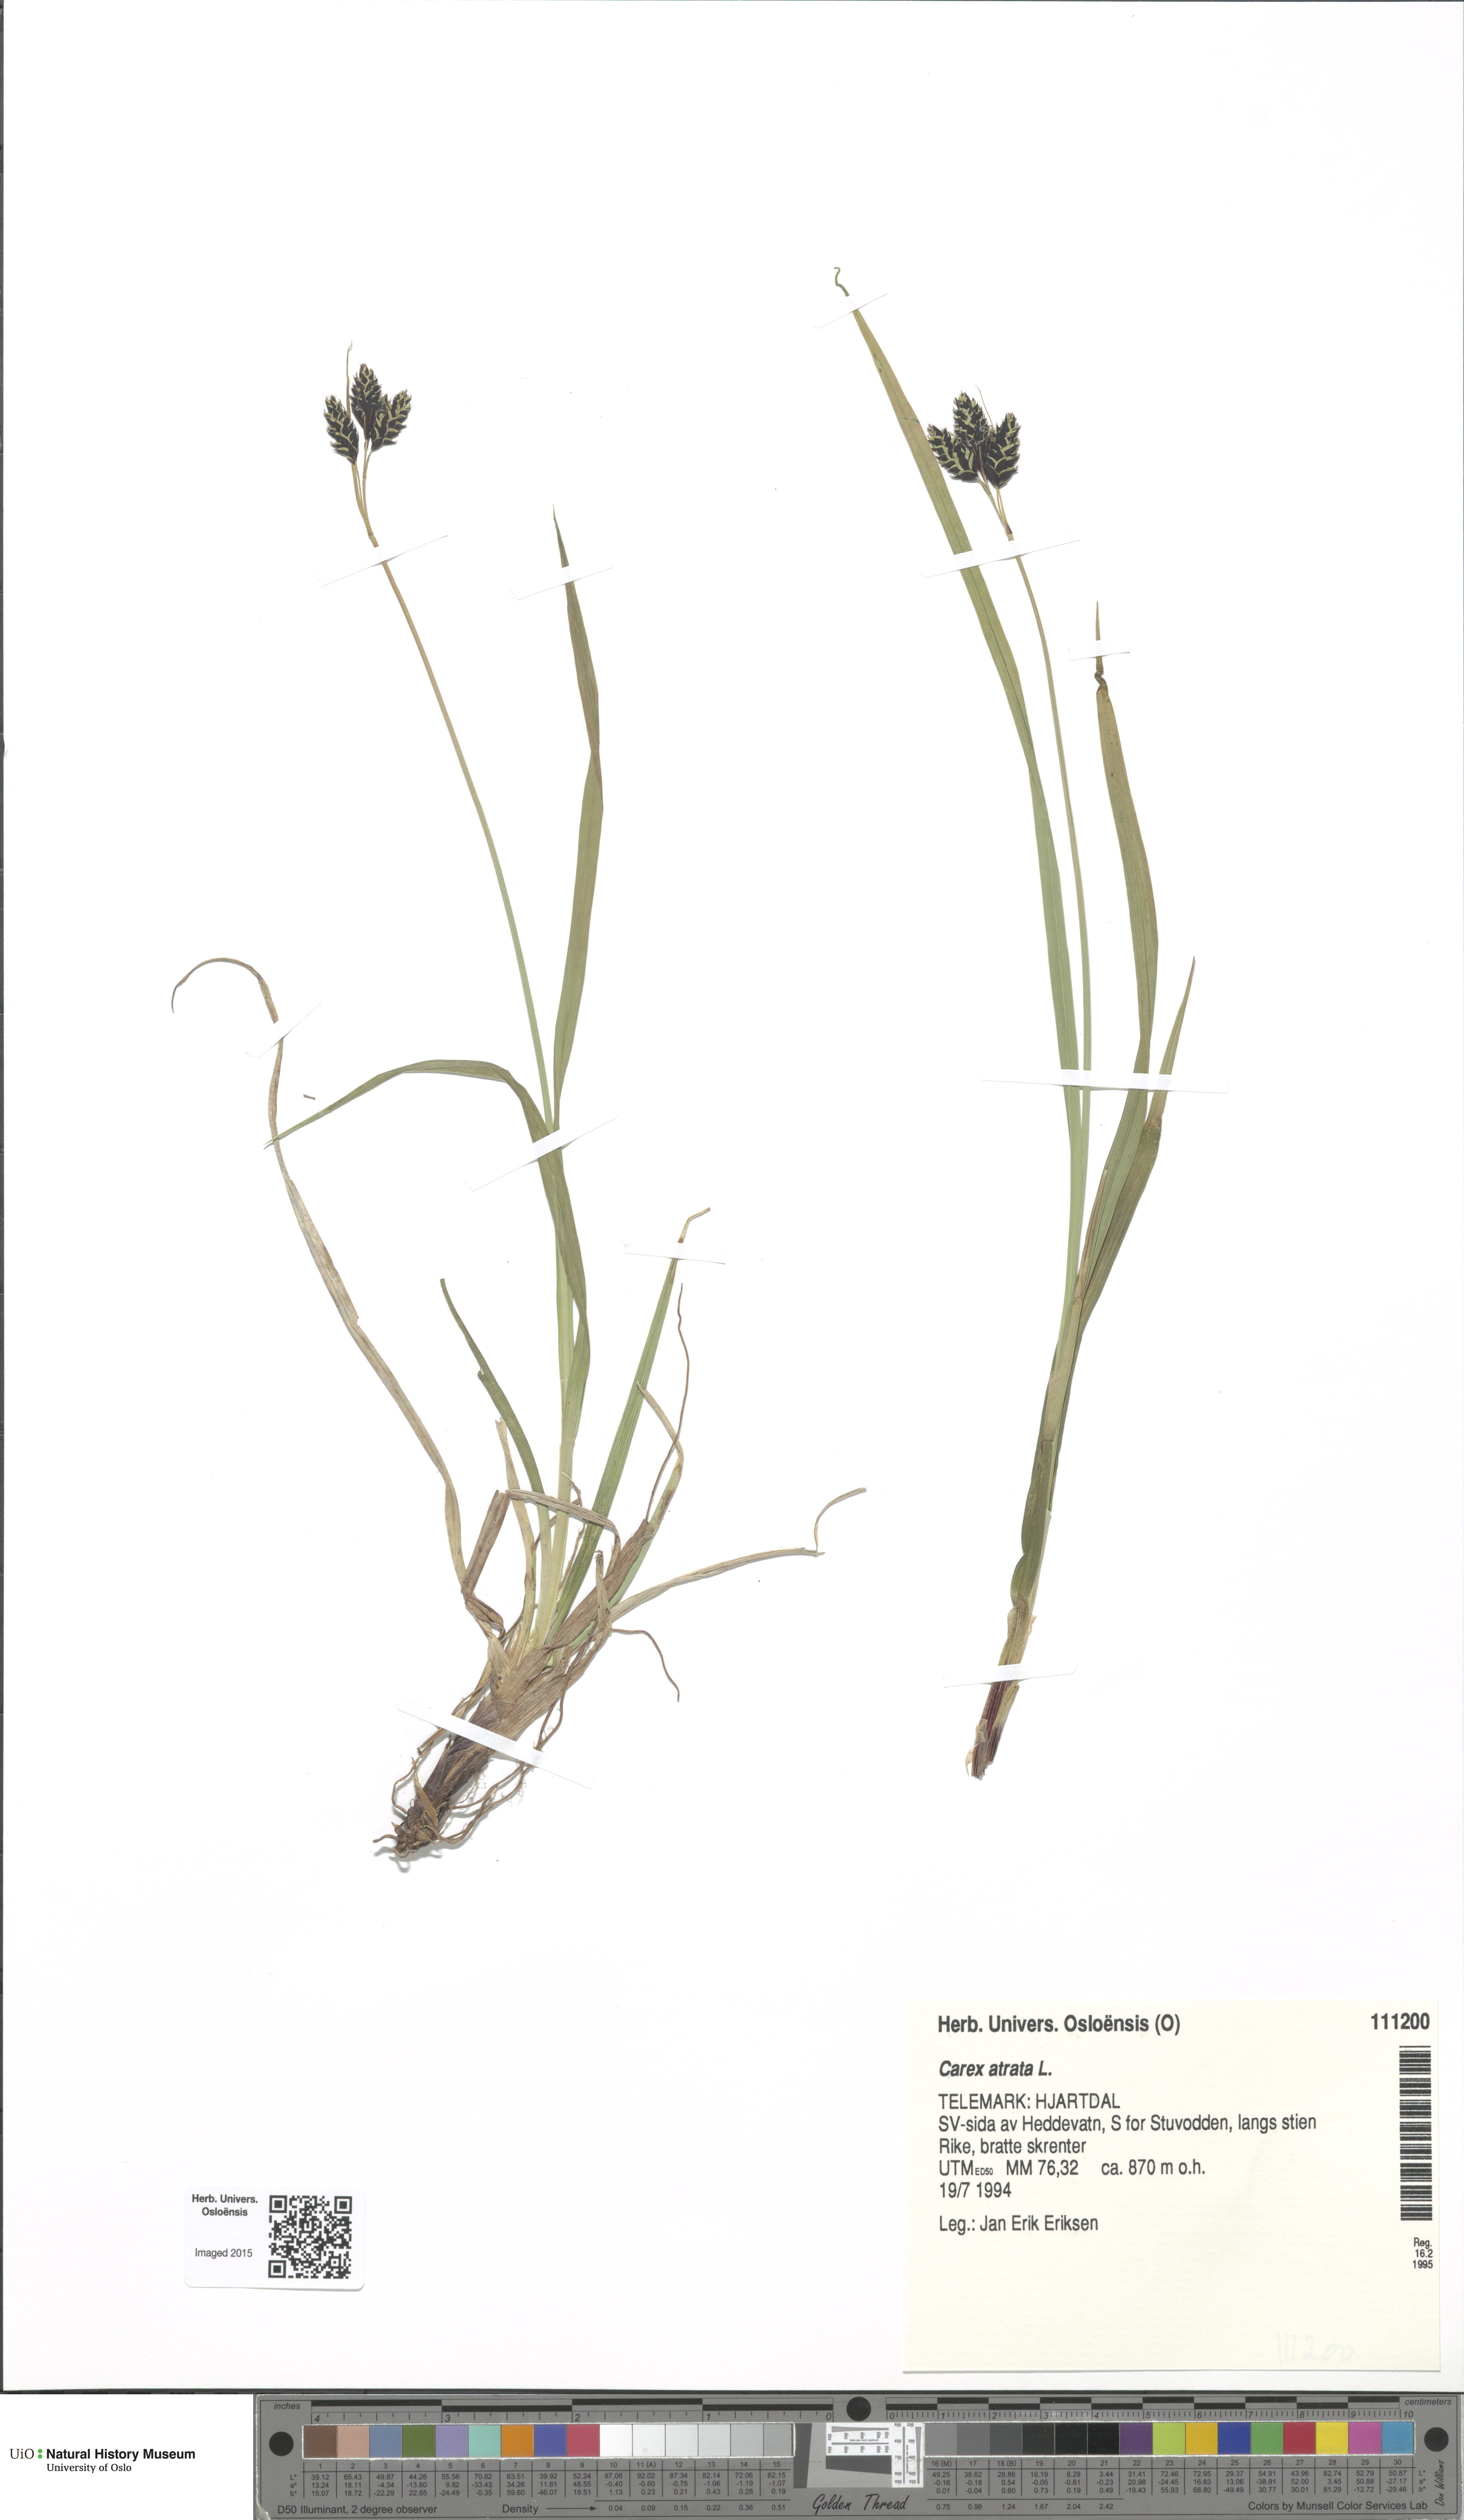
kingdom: Plantae
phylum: Tracheophyta
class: Liliopsida
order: Poales
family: Cyperaceae
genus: Carex
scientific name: Carex atrata
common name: Black alpine sedge
